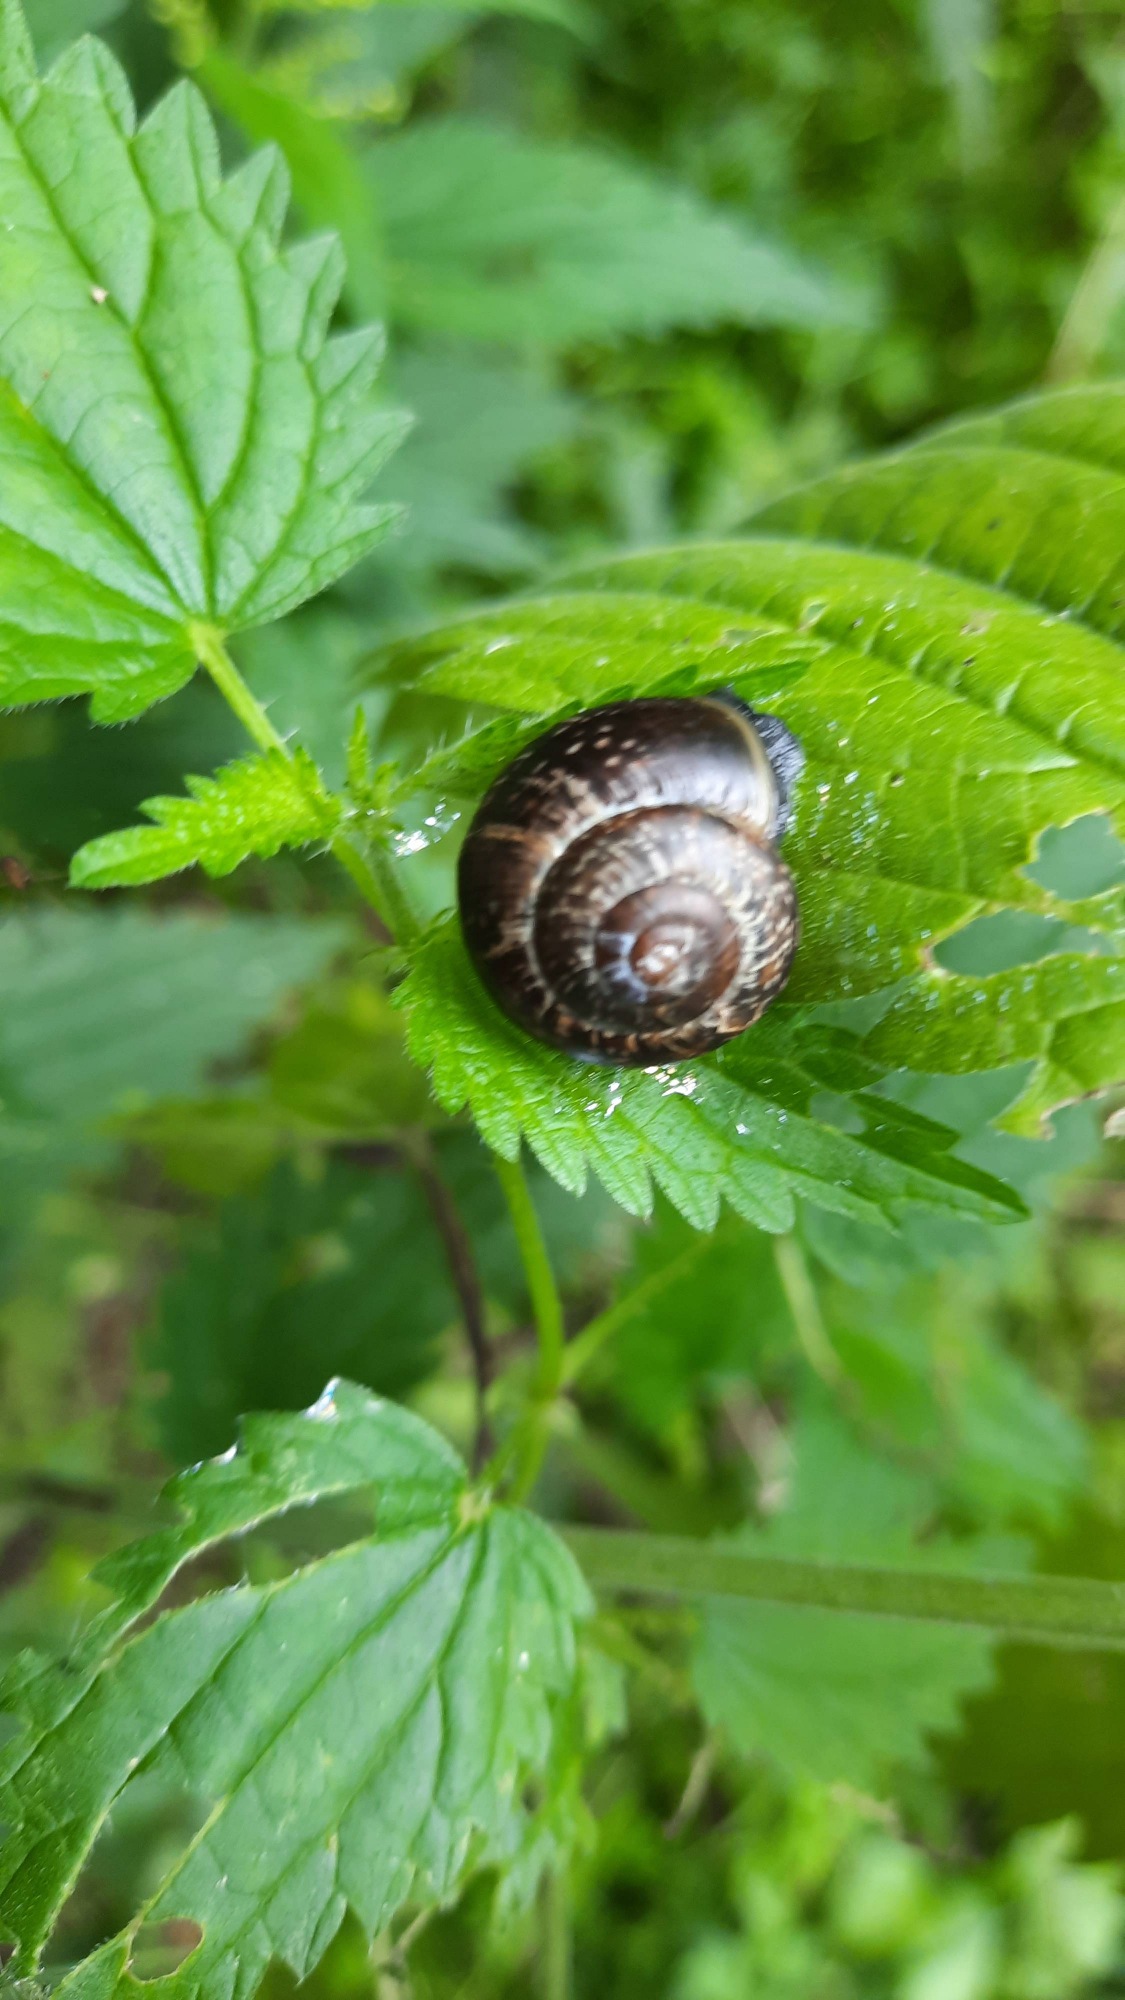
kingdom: Animalia
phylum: Mollusca
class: Gastropoda
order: Stylommatophora
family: Helicidae
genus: Arianta
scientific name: Arianta arbustorum
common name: Kratsnegl
